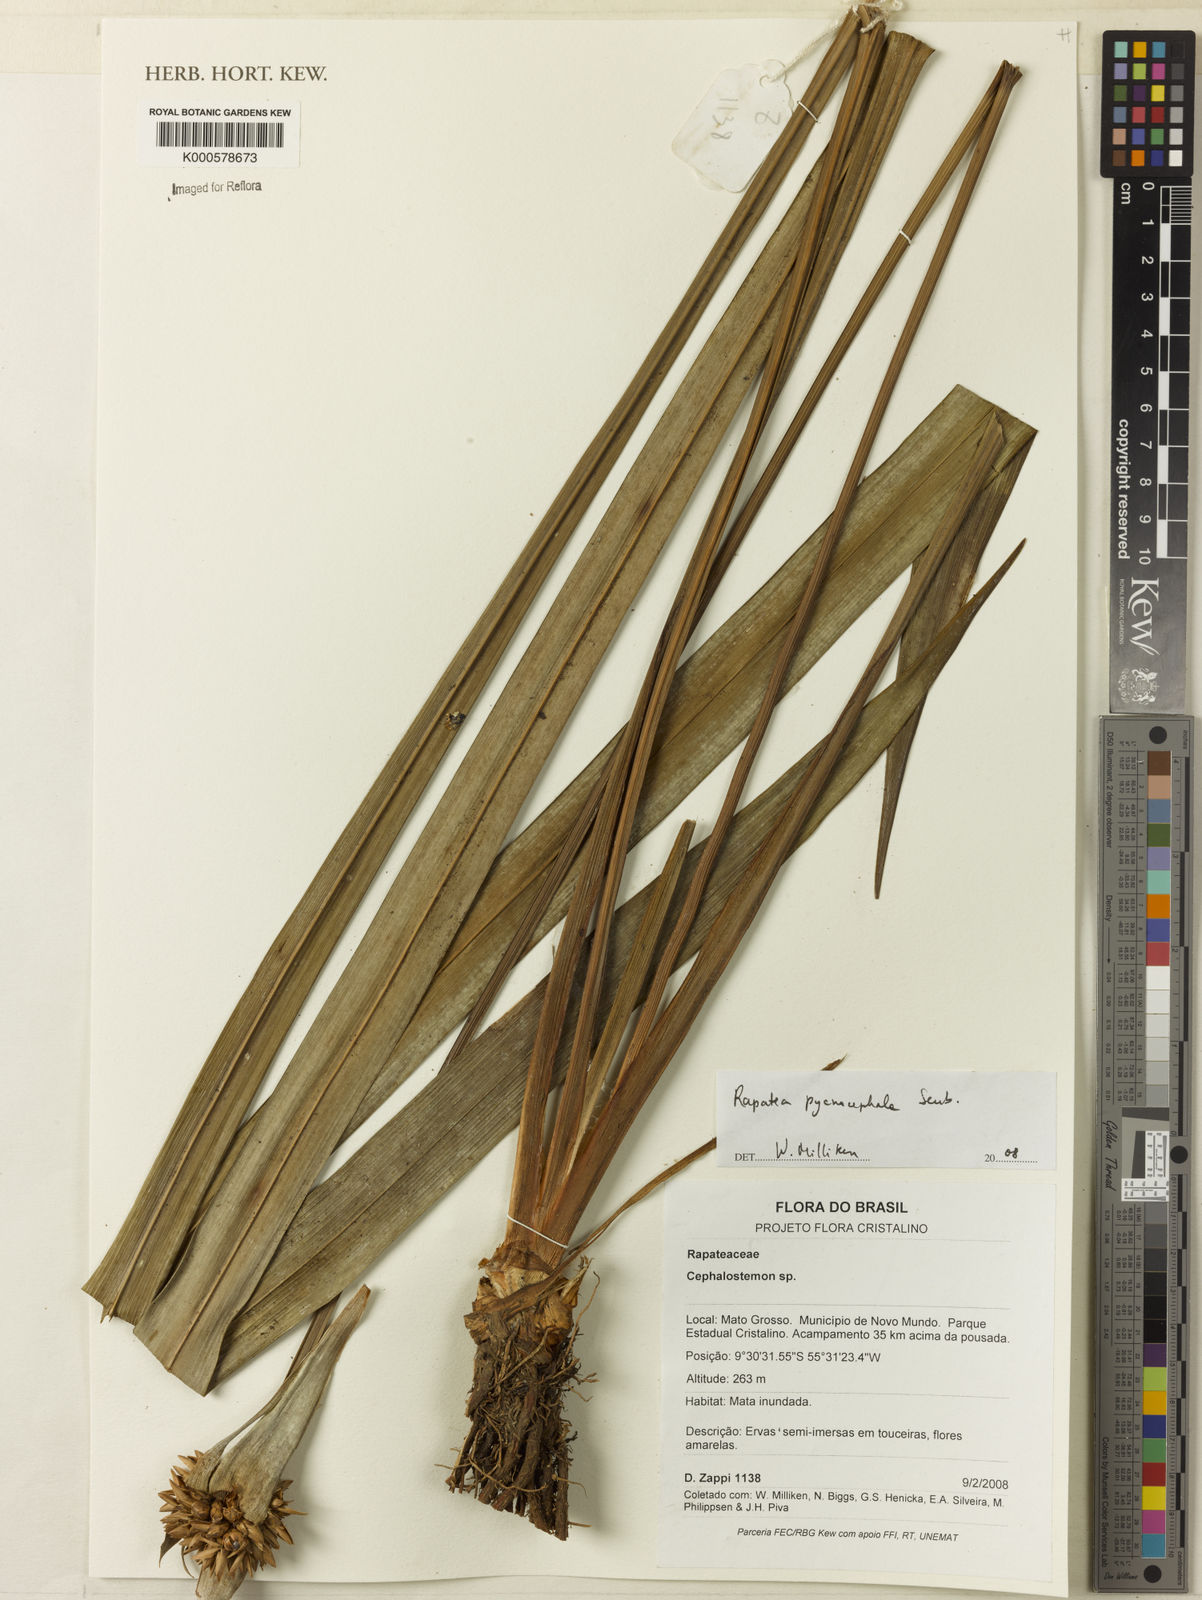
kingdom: Plantae
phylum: Tracheophyta
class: Liliopsida
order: Poales
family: Rapateaceae
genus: Rapatea
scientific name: Rapatea pycnocephala
